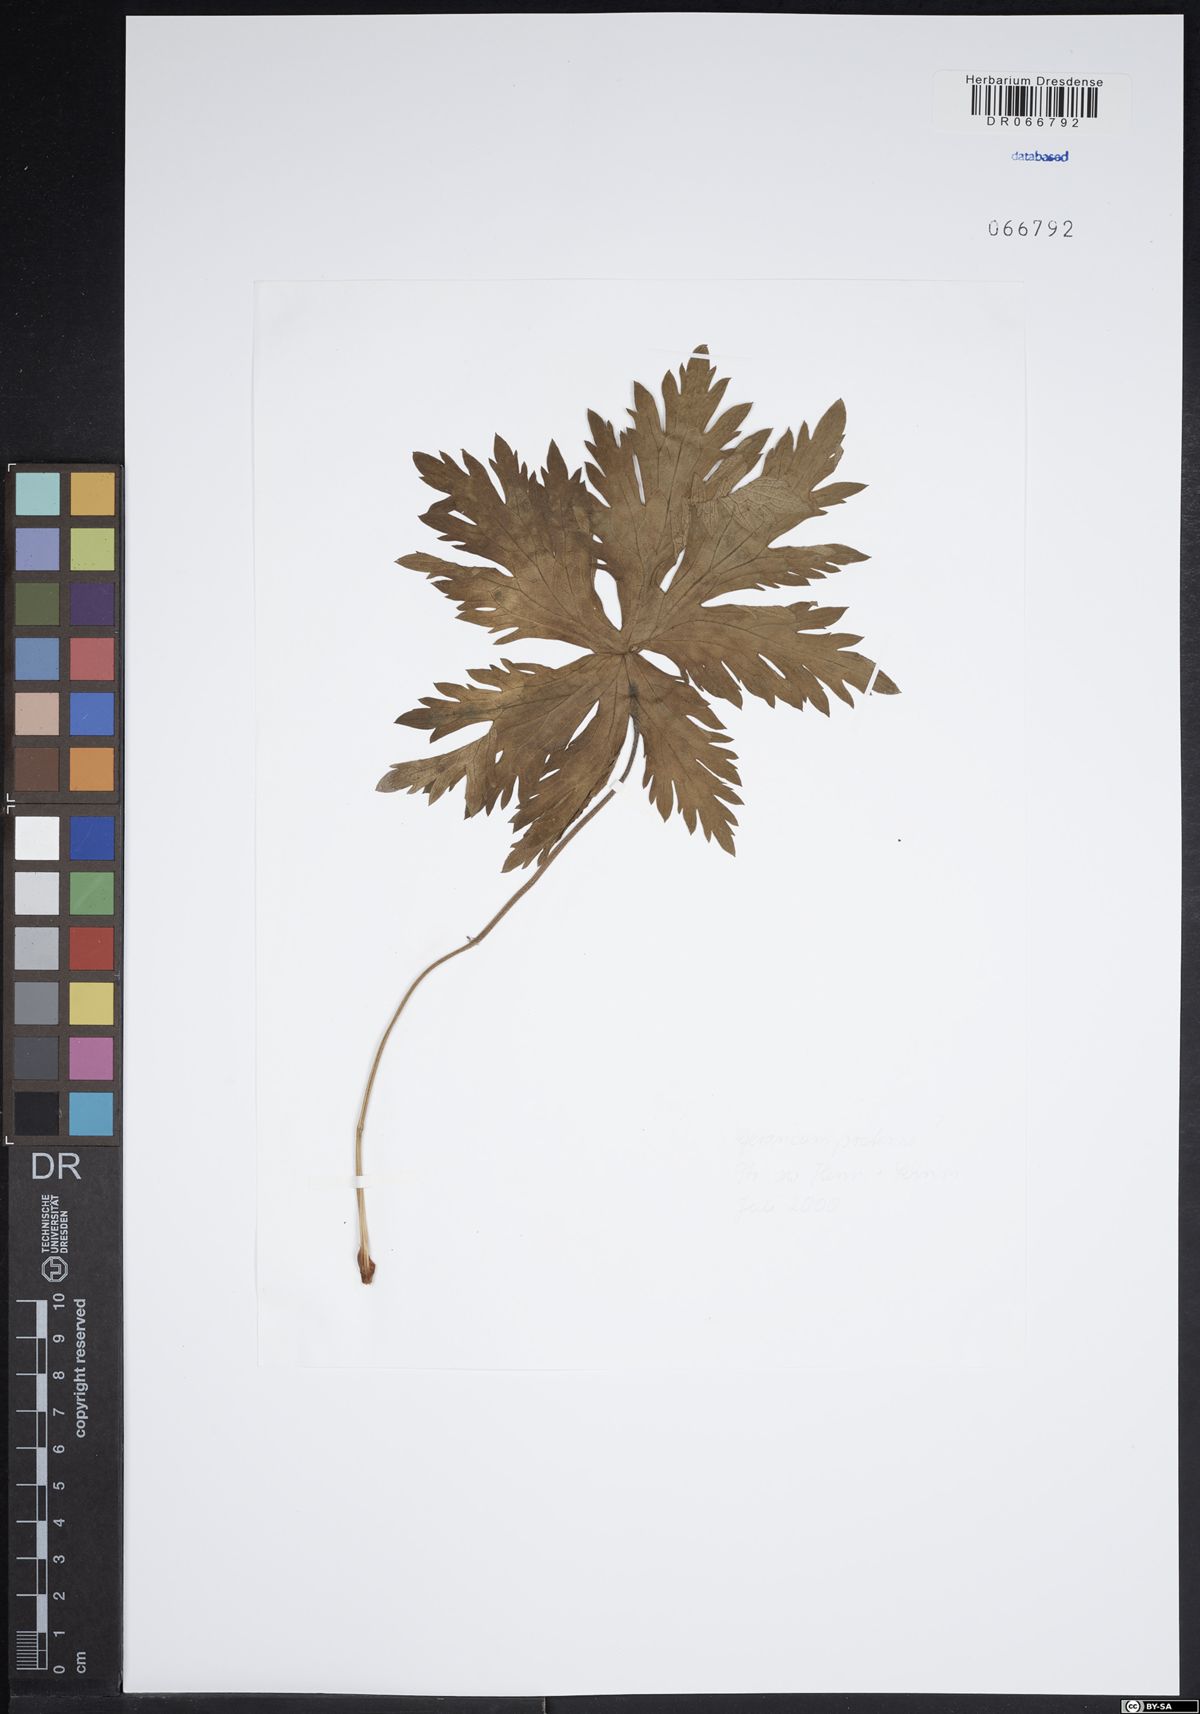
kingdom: Plantae
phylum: Tracheophyta
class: Magnoliopsida
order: Geraniales
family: Geraniaceae
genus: Geranium
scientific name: Geranium pratense
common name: Meadow crane's-bill
